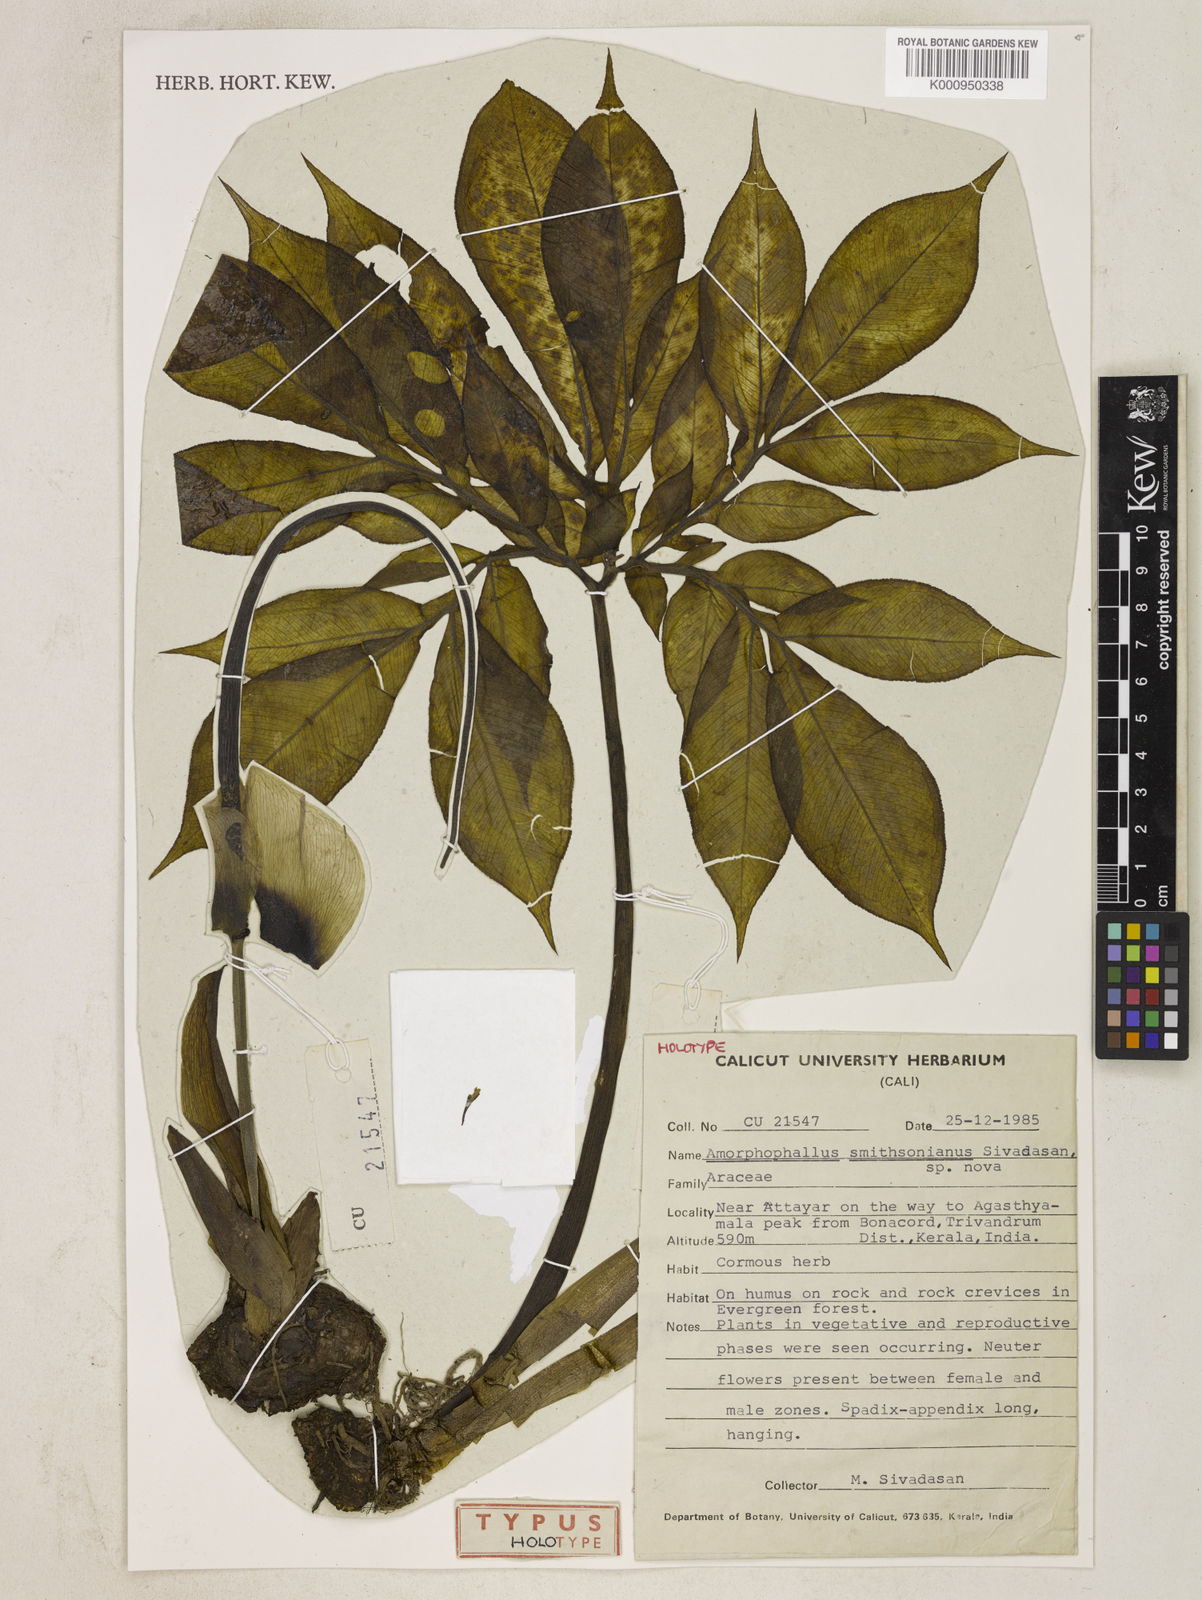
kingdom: Plantae
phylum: Tracheophyta
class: Liliopsida
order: Alismatales
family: Araceae
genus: Amorphophallus
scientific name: Amorphophallus smithsonianus
